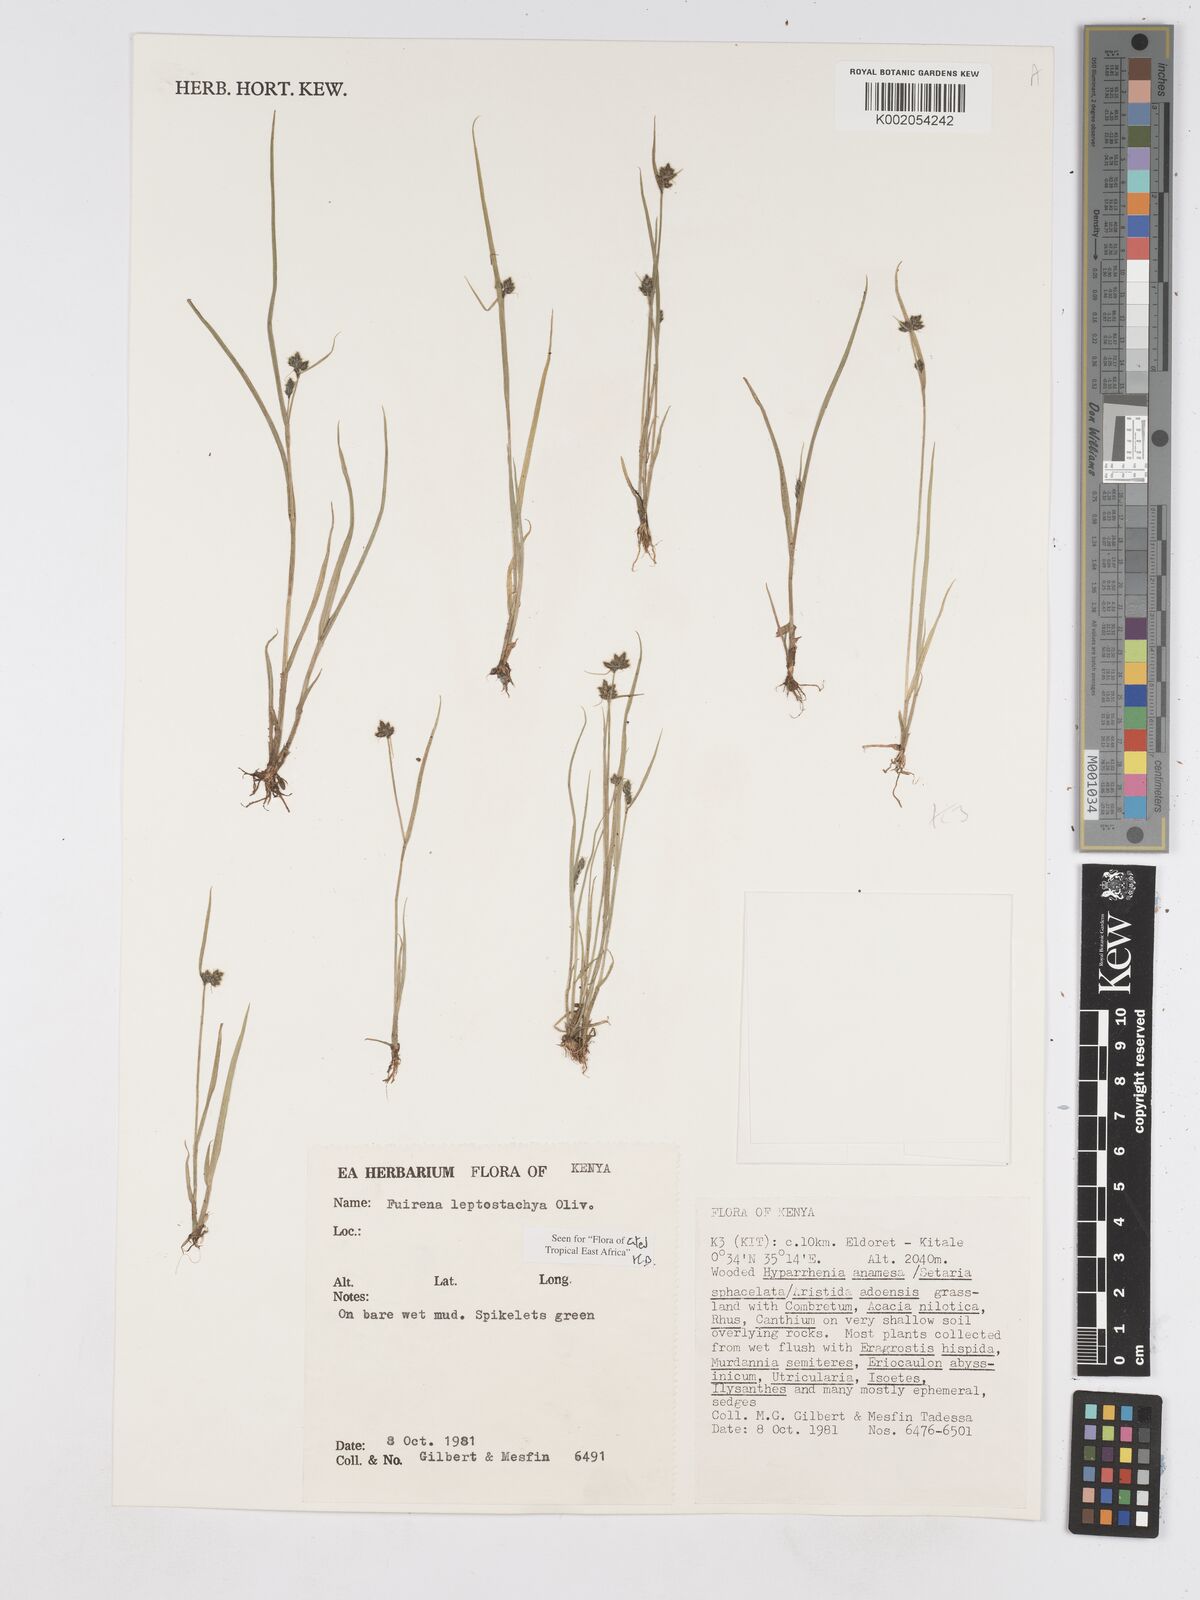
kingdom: Plantae
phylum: Tracheophyta
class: Liliopsida
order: Poales
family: Cyperaceae
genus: Fuirena
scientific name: Fuirena leptostachya
